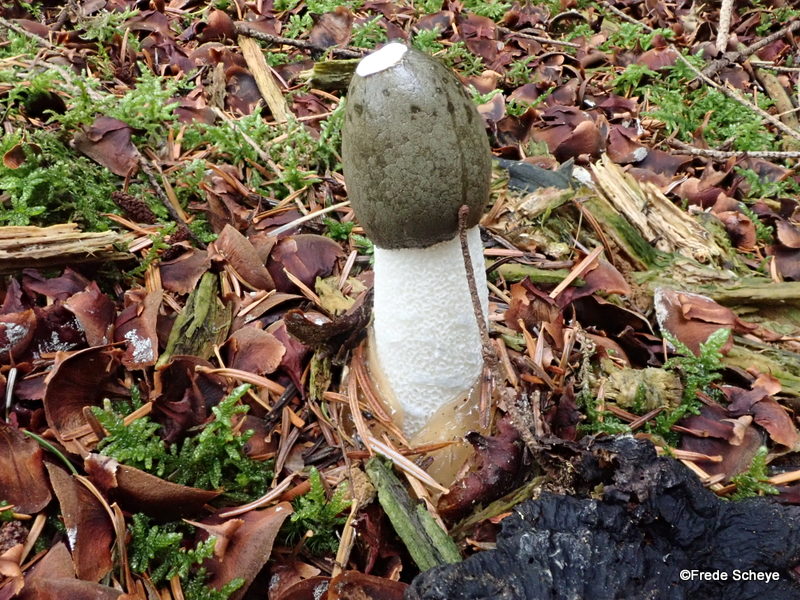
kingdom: Fungi
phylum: Basidiomycota
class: Agaricomycetes
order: Phallales
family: Phallaceae
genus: Phallus
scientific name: Phallus impudicus
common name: almindelig stinksvamp
